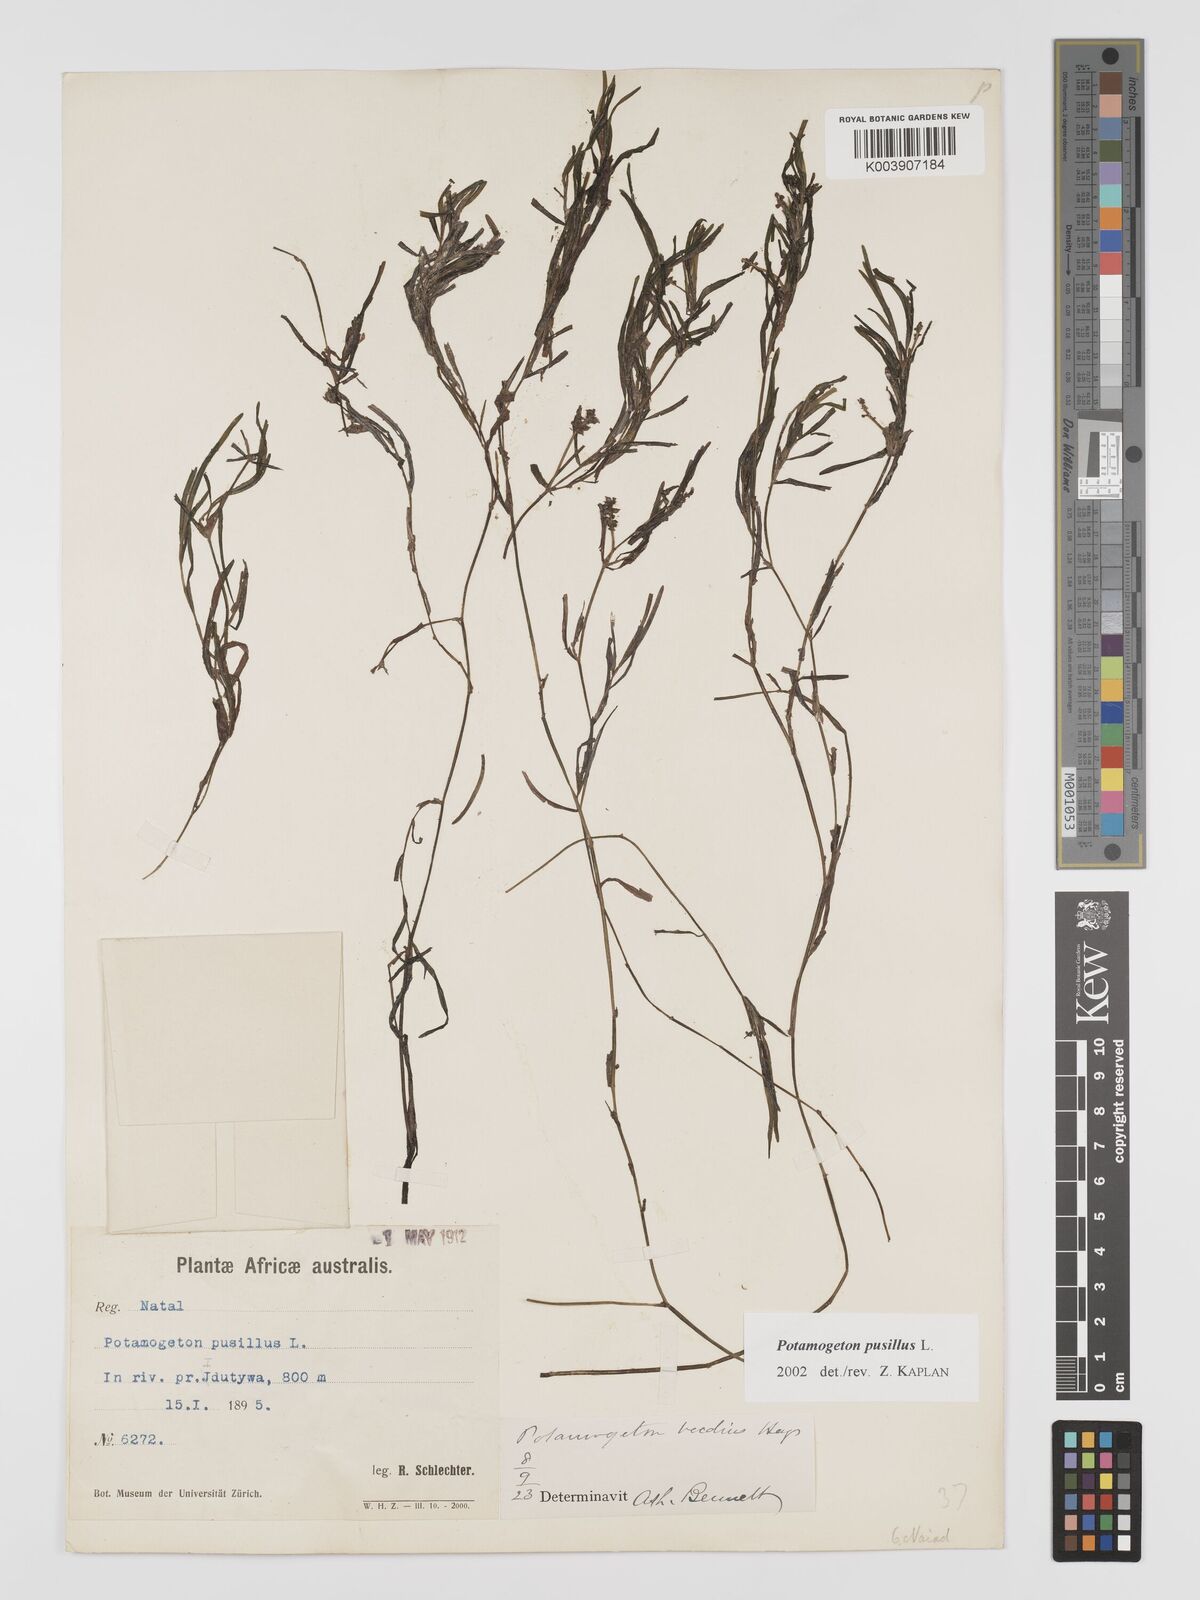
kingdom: Plantae
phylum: Tracheophyta
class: Liliopsida
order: Alismatales
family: Potamogetonaceae
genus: Potamogeton
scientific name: Potamogeton pusillus
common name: Lesser pondweed
